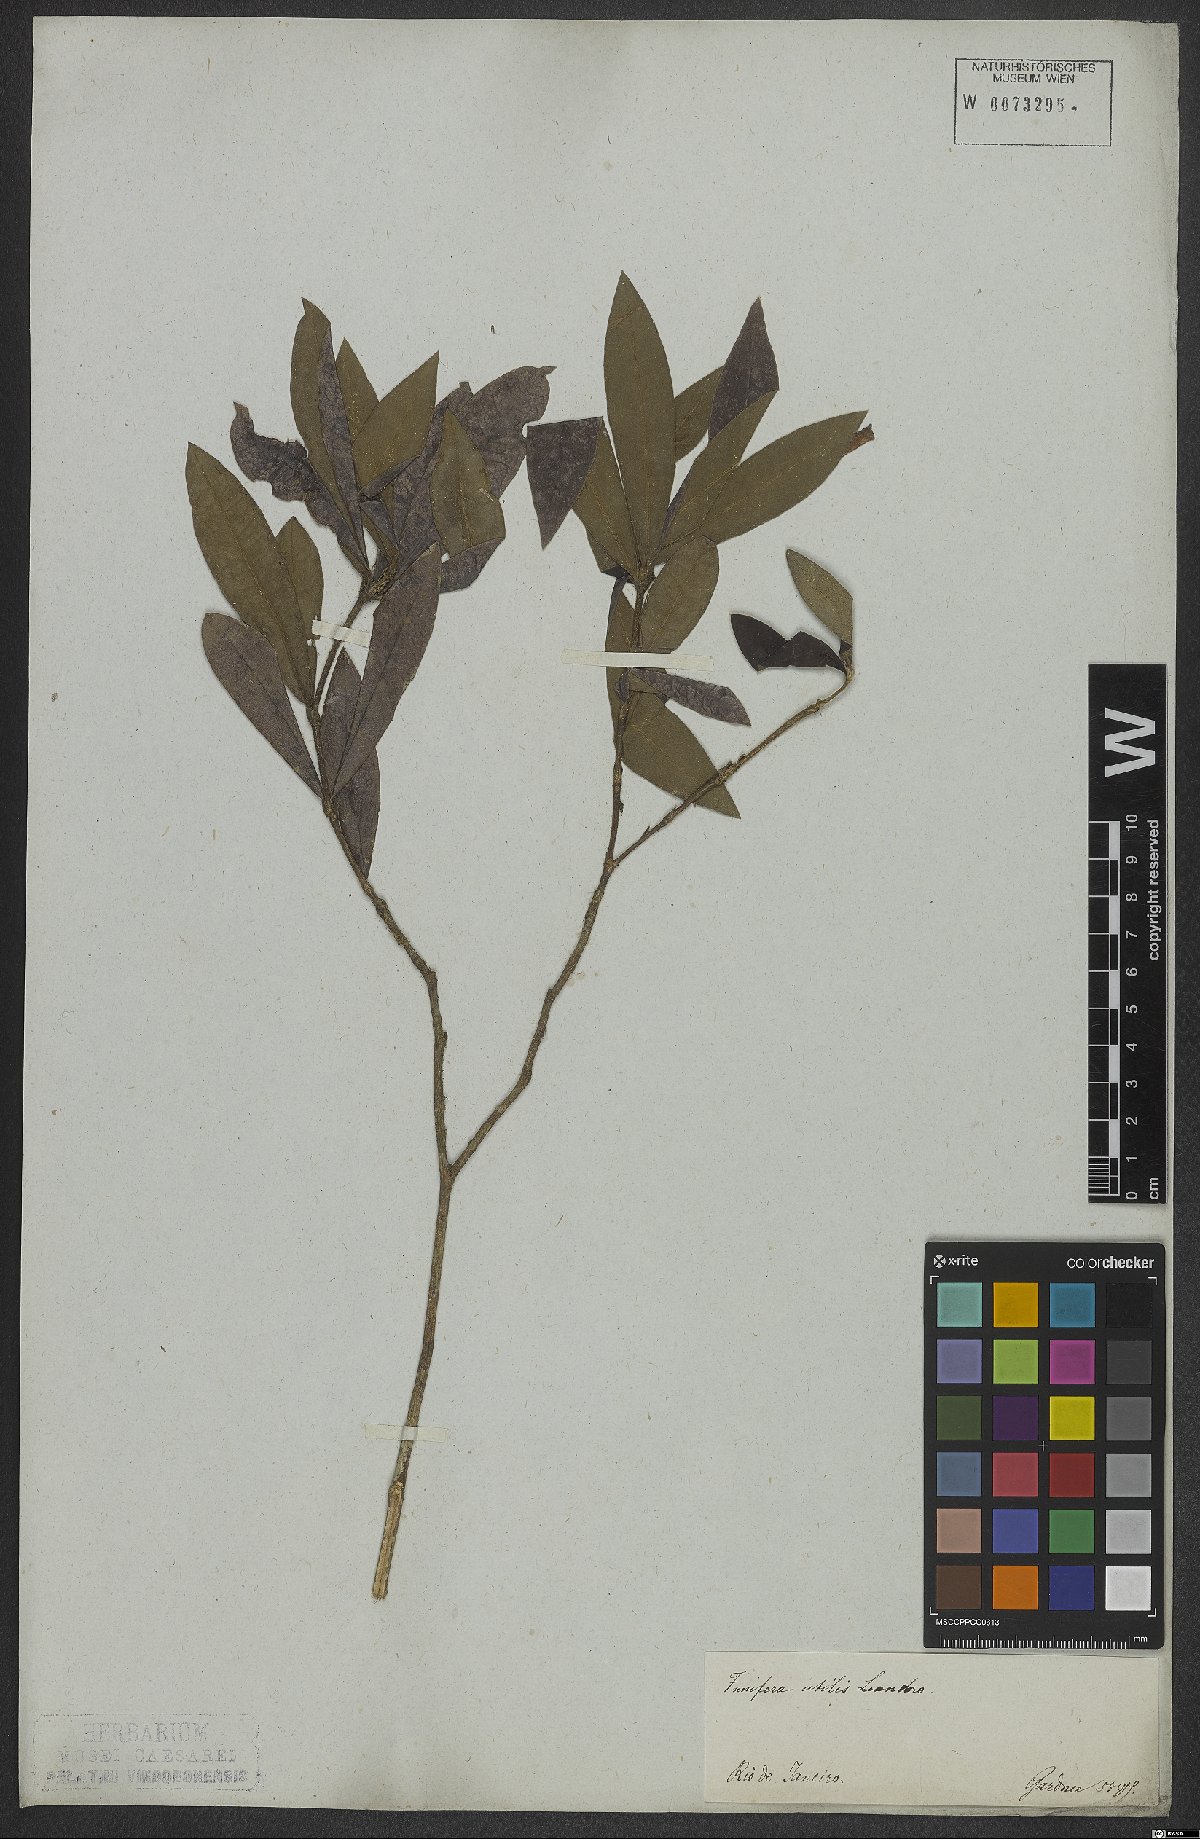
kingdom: Plantae
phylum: Tracheophyta
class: Magnoliopsida
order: Malvales
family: Thymelaeaceae
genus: Funifera
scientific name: Funifera brasiliensis
